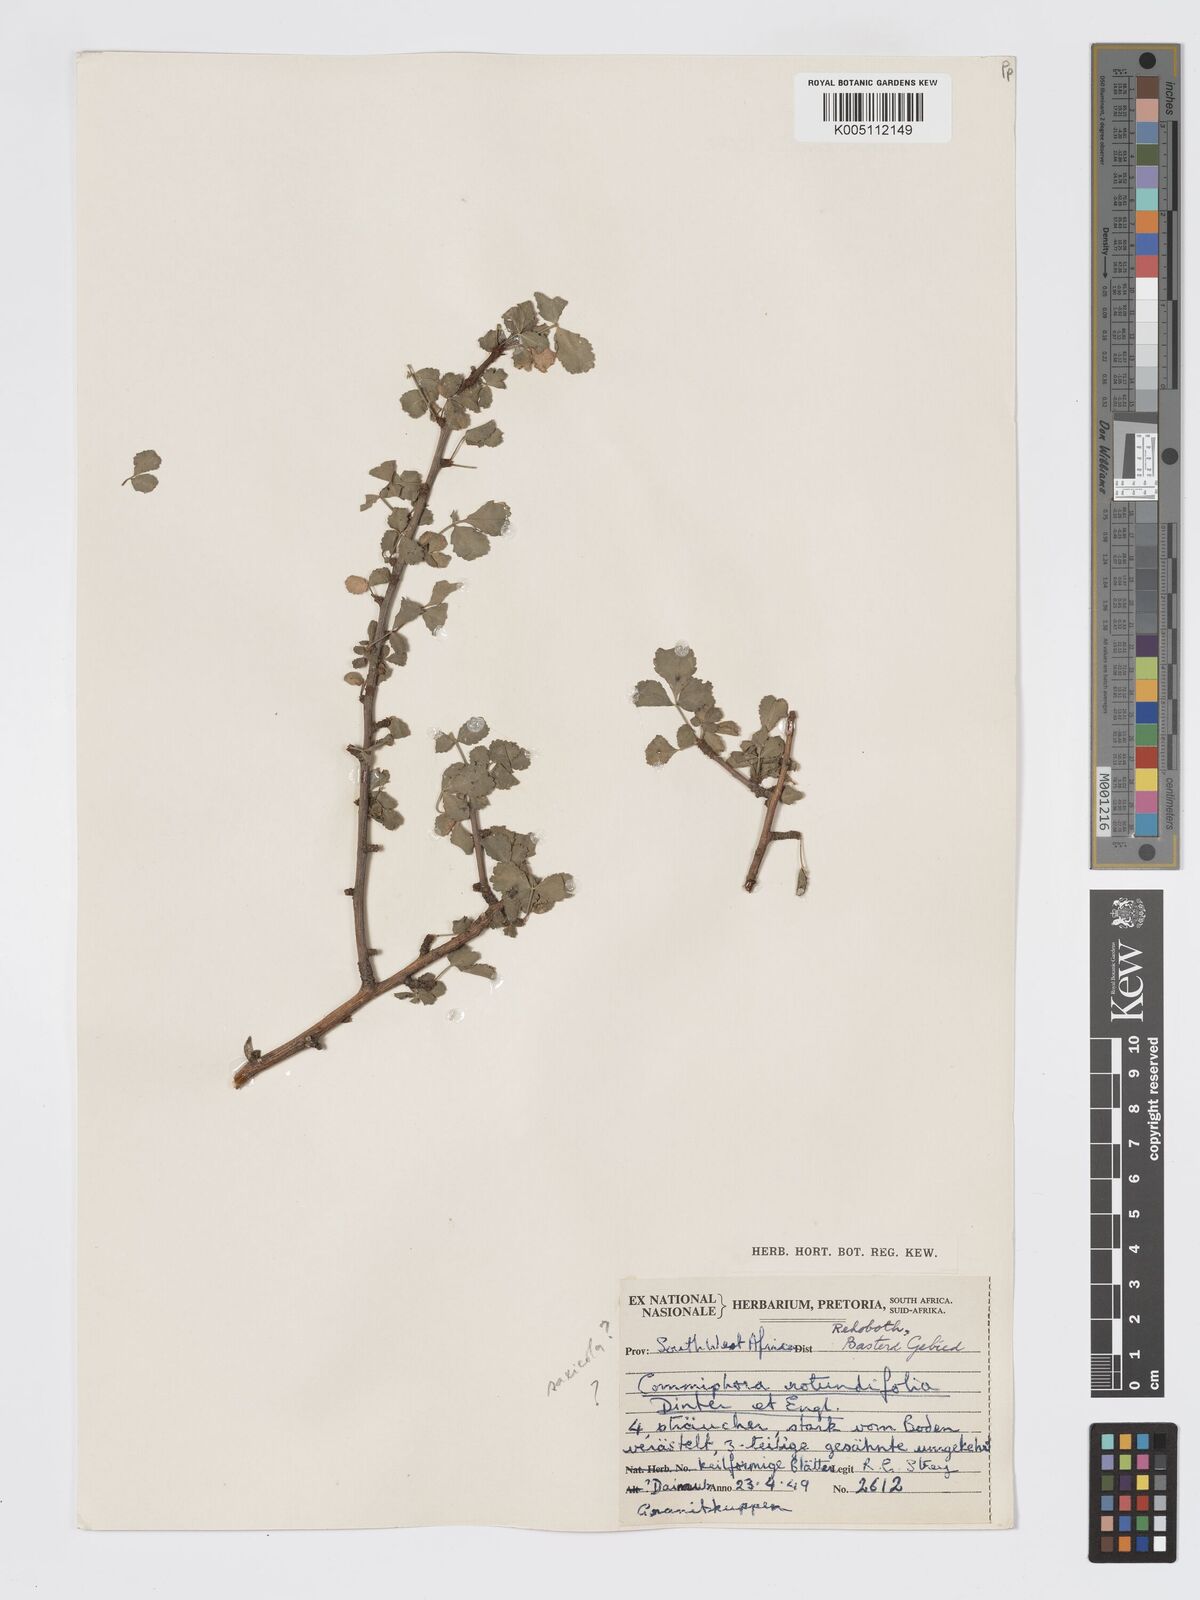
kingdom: Plantae
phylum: Tracheophyta
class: Magnoliopsida
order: Sapindales
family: Burseraceae
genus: Commiphora
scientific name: Commiphora namaensis
